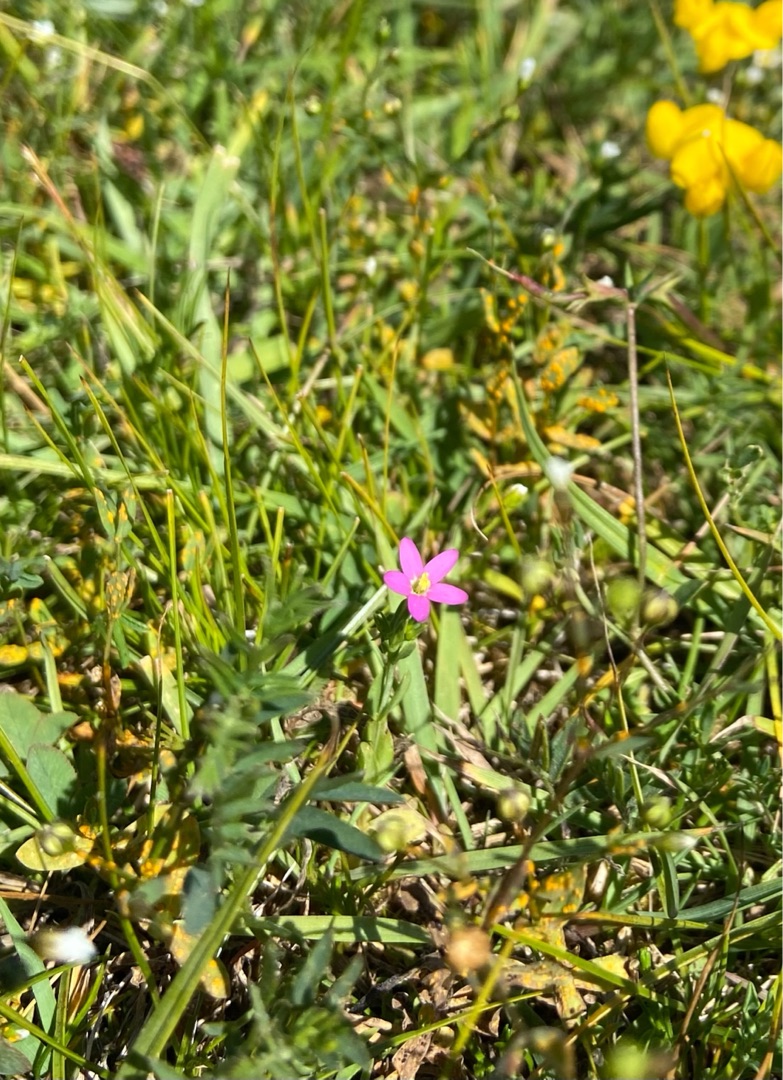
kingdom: Plantae
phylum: Tracheophyta
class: Magnoliopsida
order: Gentianales
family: Gentianaceae
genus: Centaurium
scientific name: Centaurium pulchellum
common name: Liden tusindgylden
